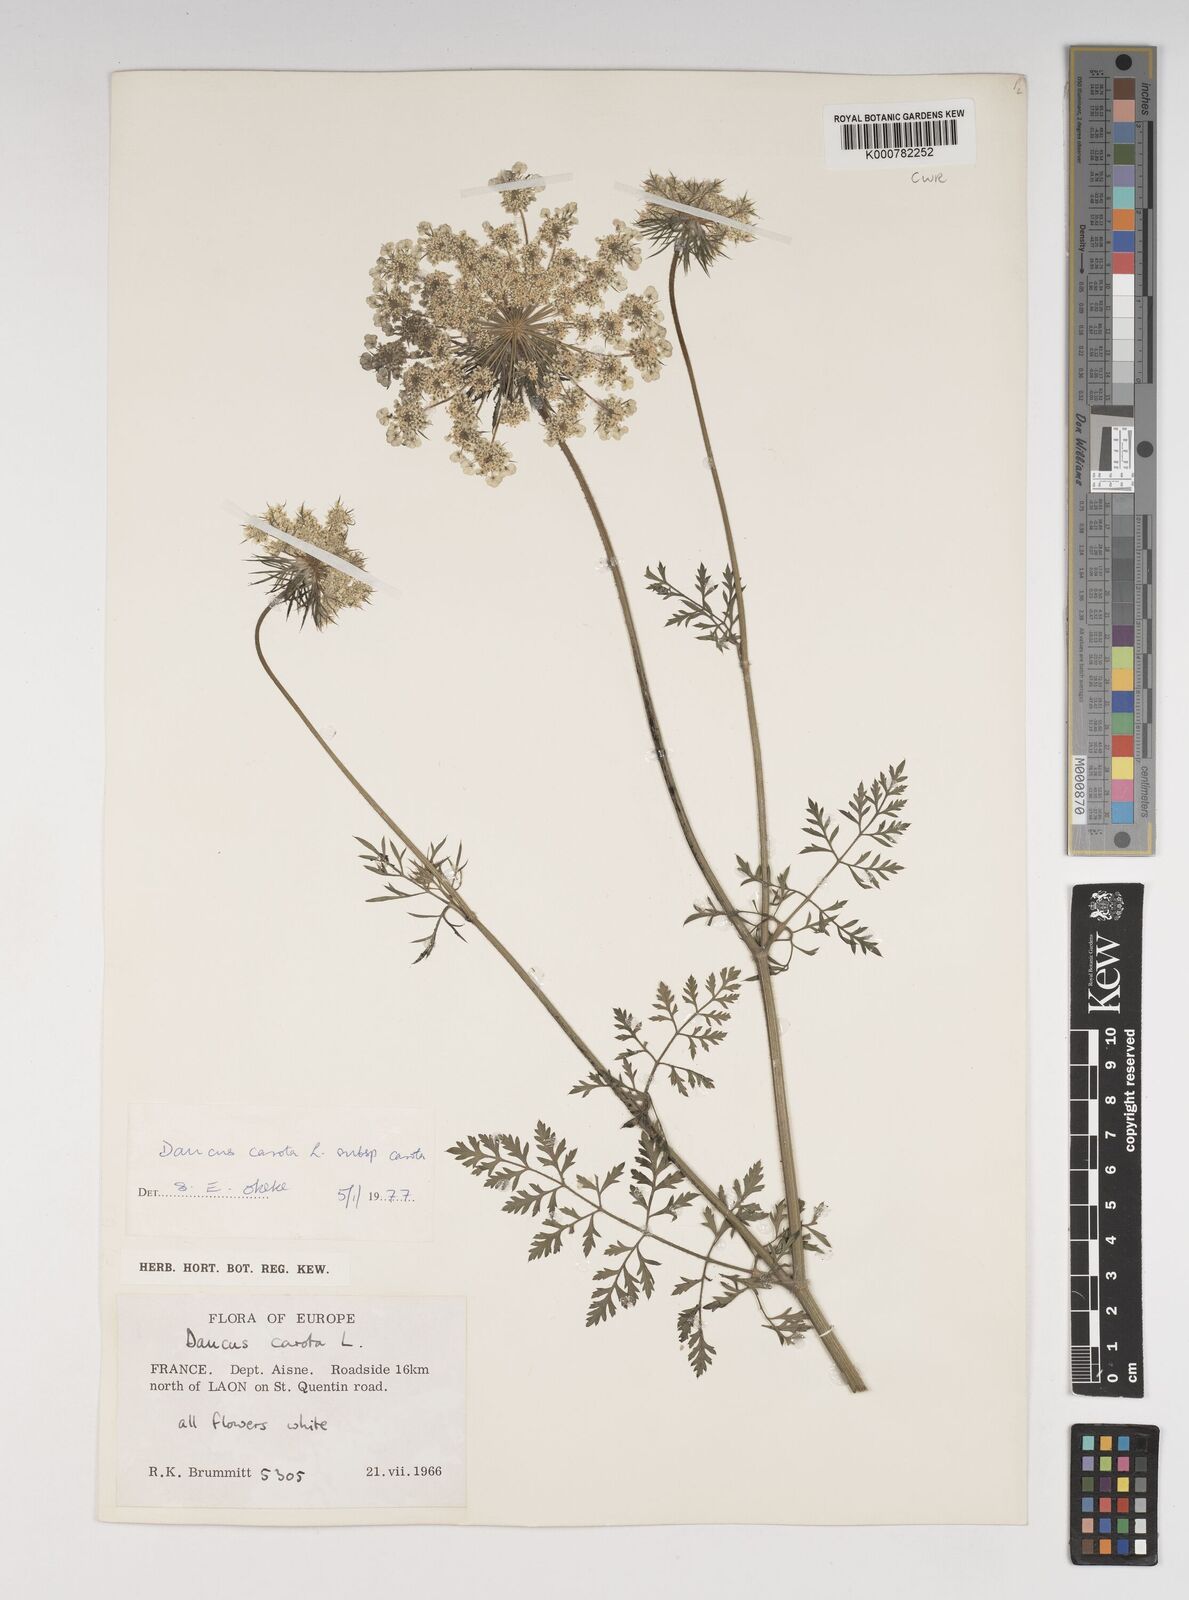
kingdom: Plantae
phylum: Tracheophyta
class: Magnoliopsida
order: Apiales
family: Apiaceae
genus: Daucus
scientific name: Daucus carota
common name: Wild carrot
